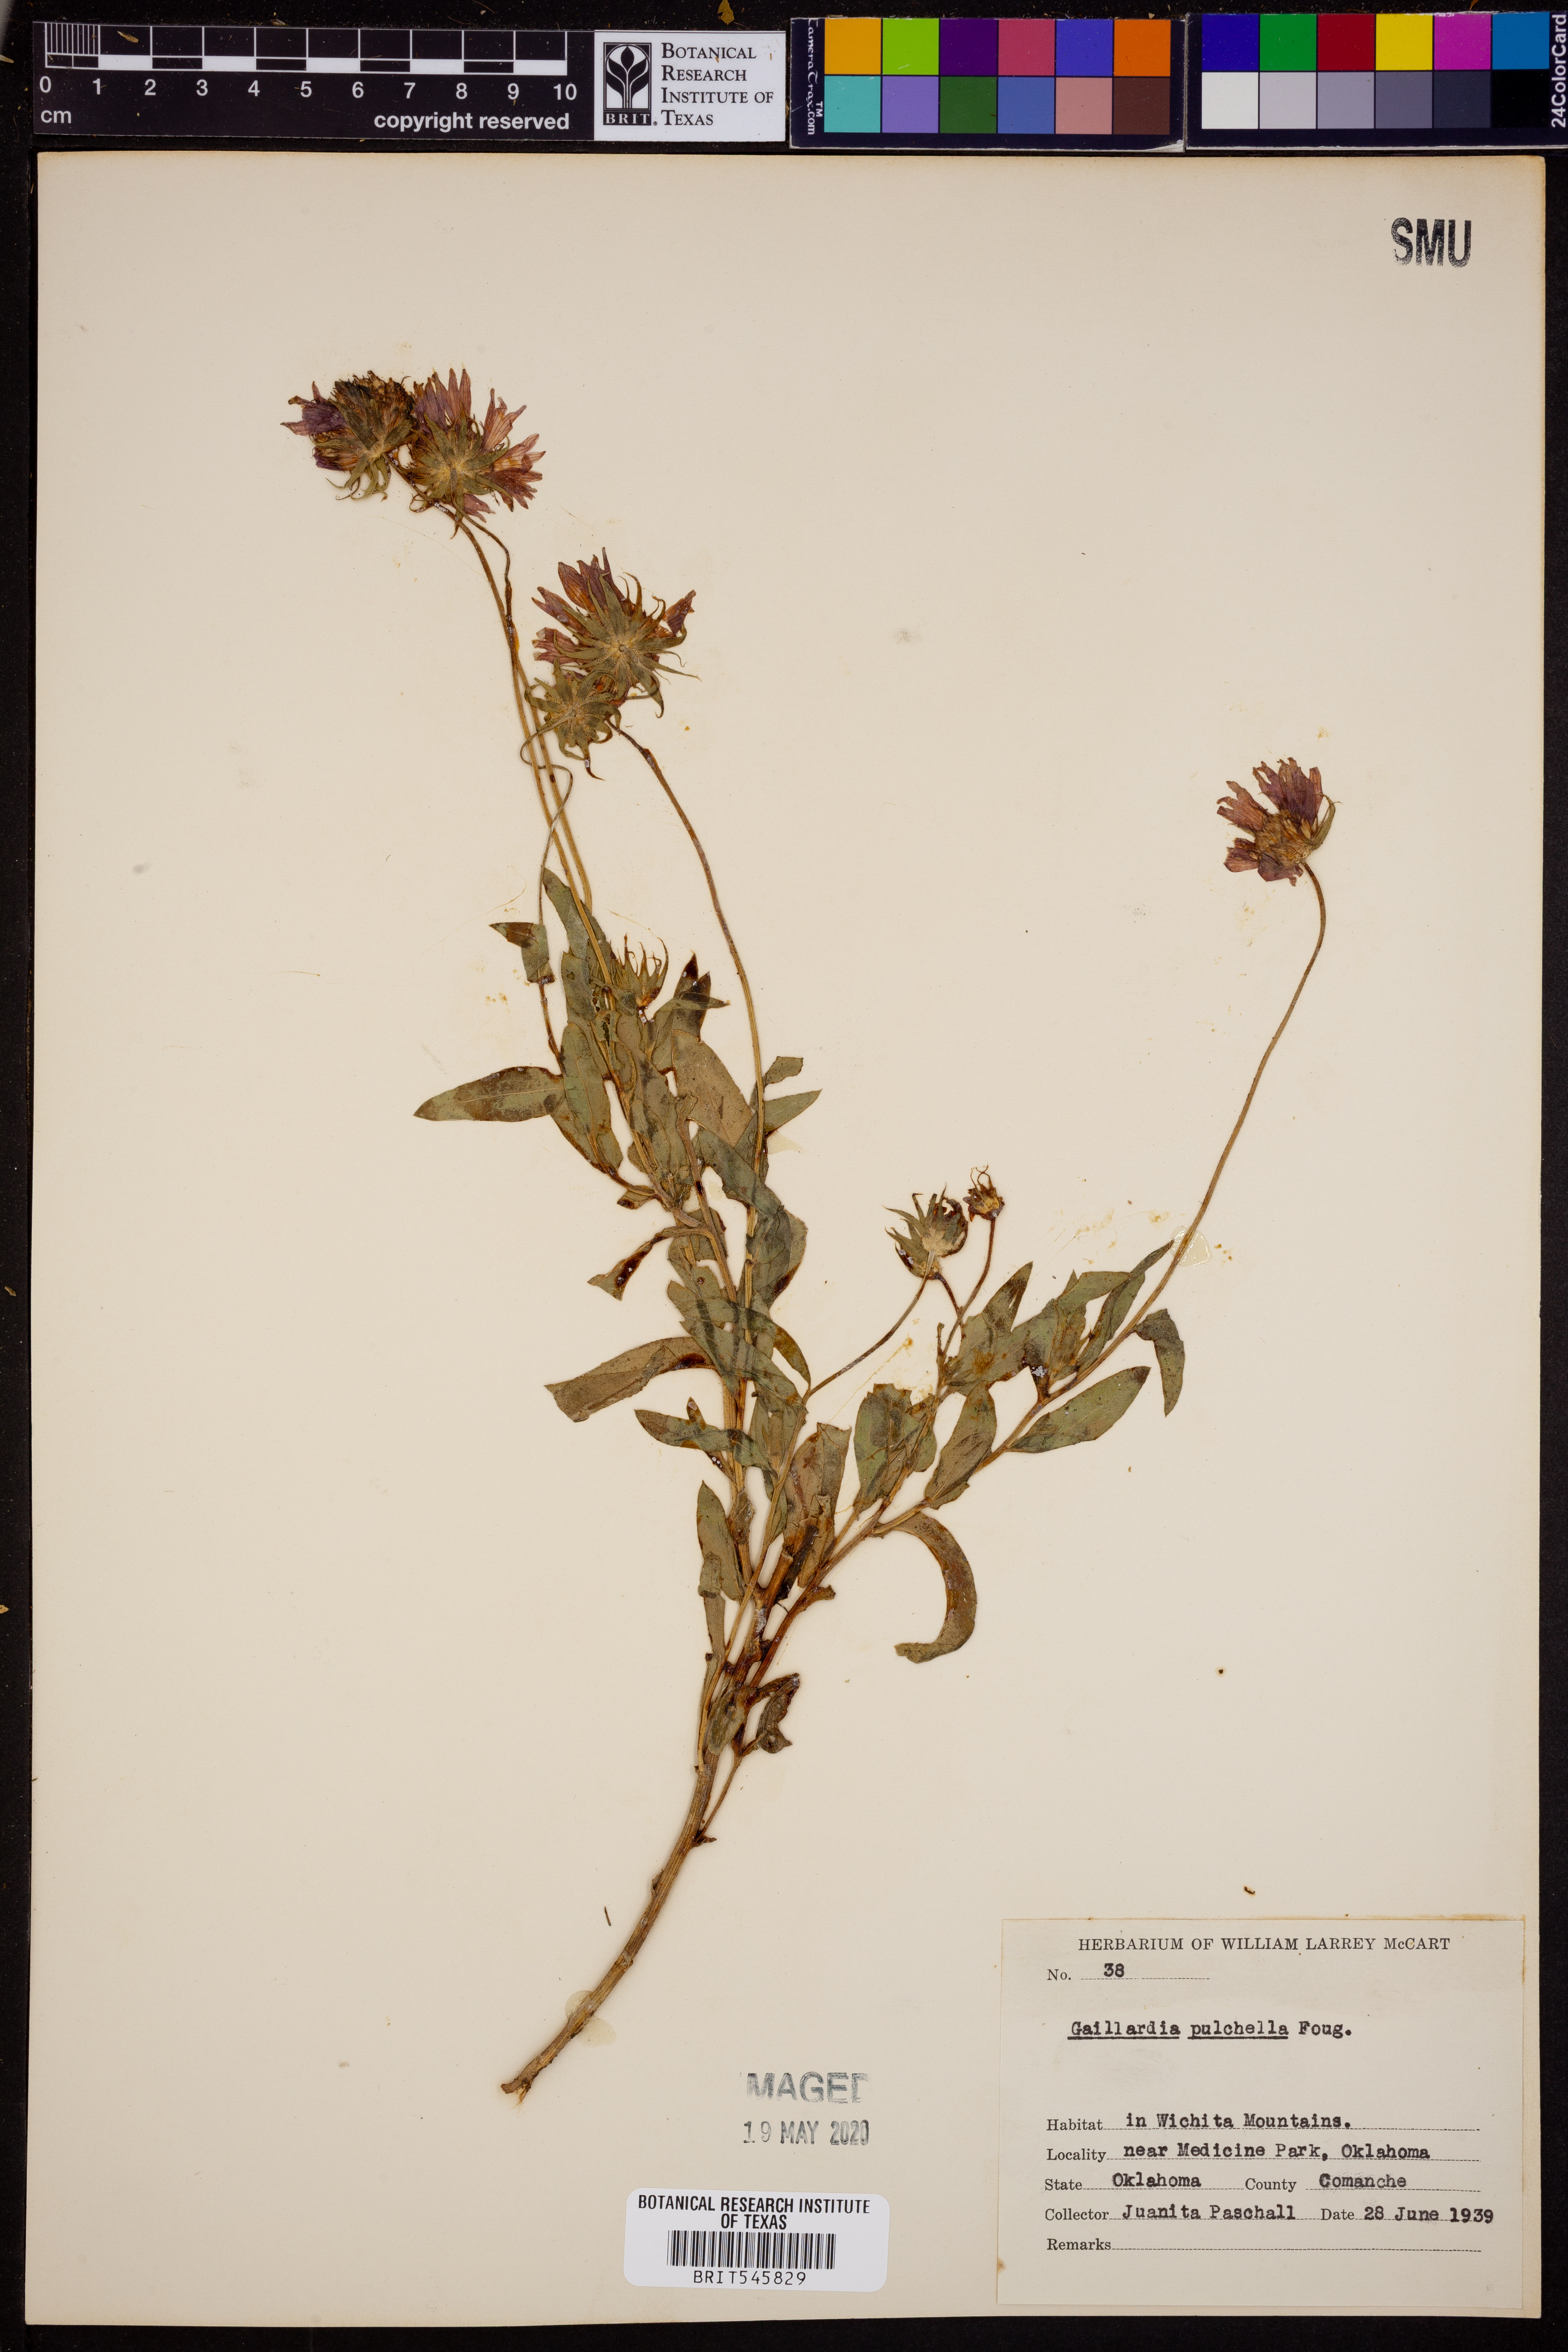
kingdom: Plantae
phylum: Tracheophyta
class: Magnoliopsida
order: Asterales
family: Asteraceae
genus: Gaillardia
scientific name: Gaillardia pulchella
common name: Firewheel
